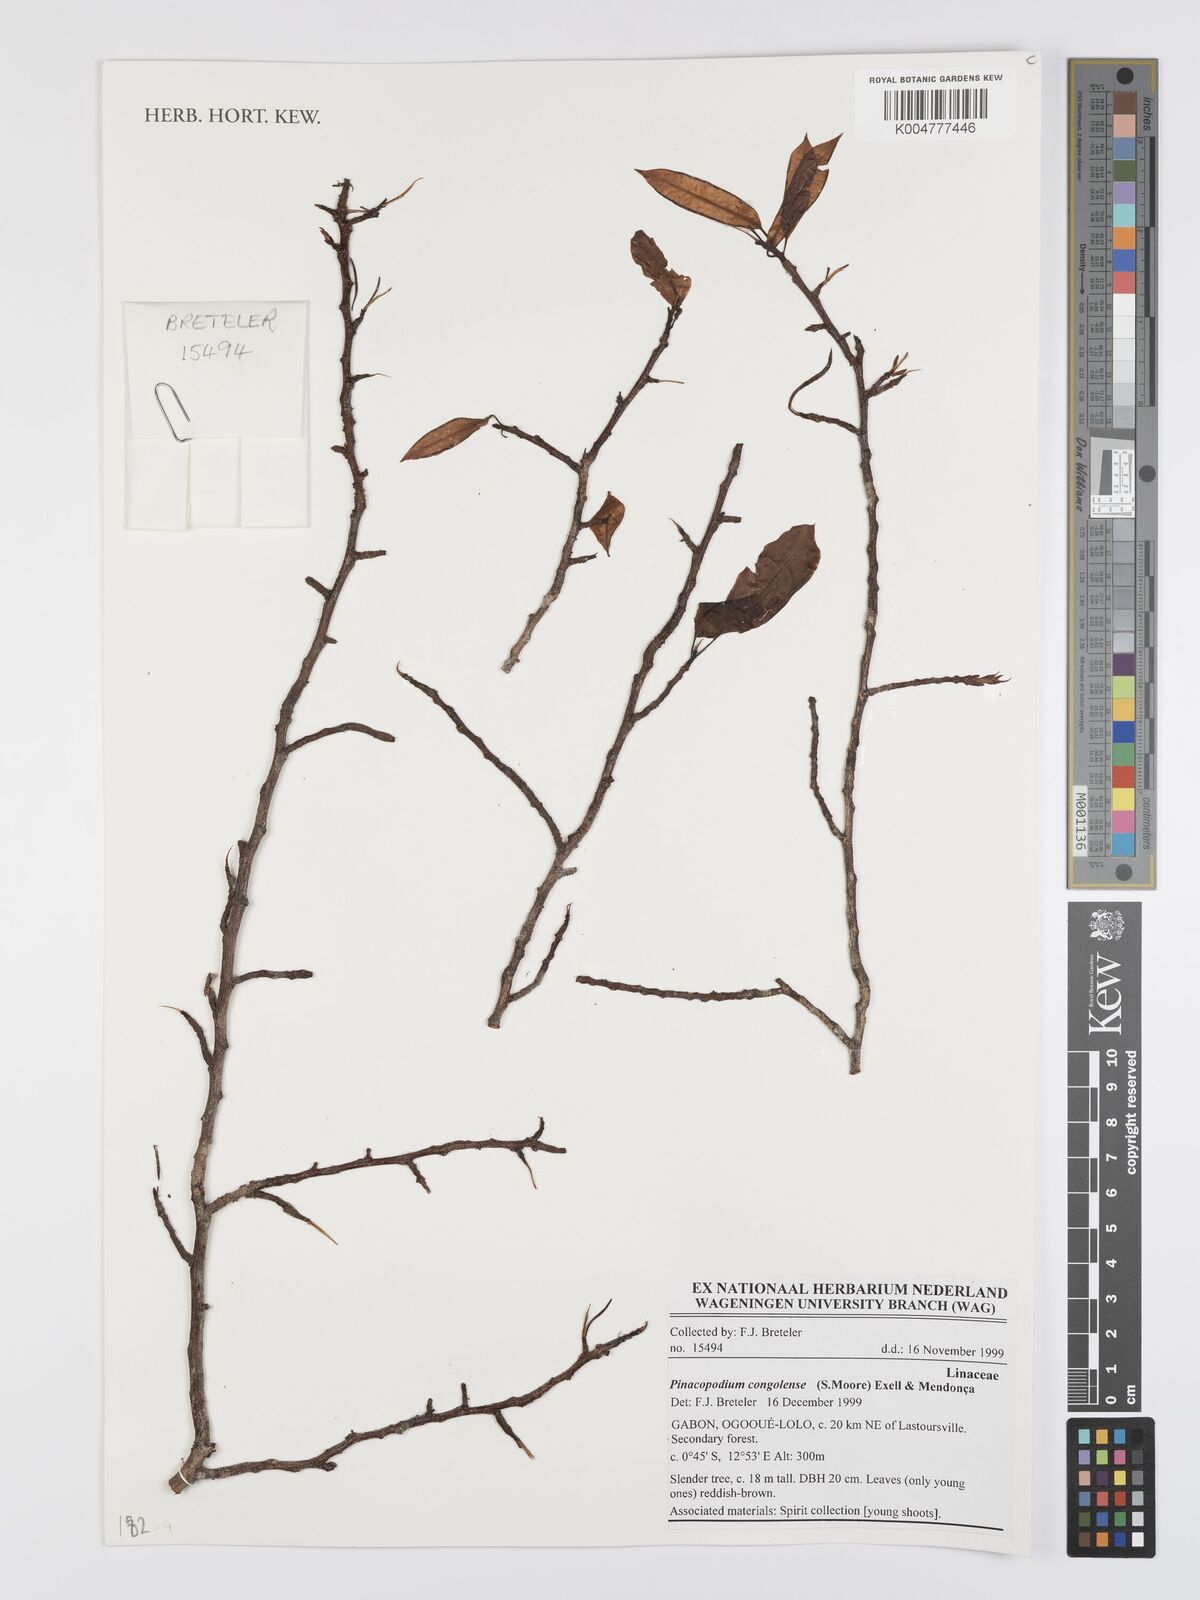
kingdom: Plantae
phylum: Tracheophyta
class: Magnoliopsida
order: Malpighiales
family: Erythroxylaceae
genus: Pinacopodium
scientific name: Pinacopodium congolense
